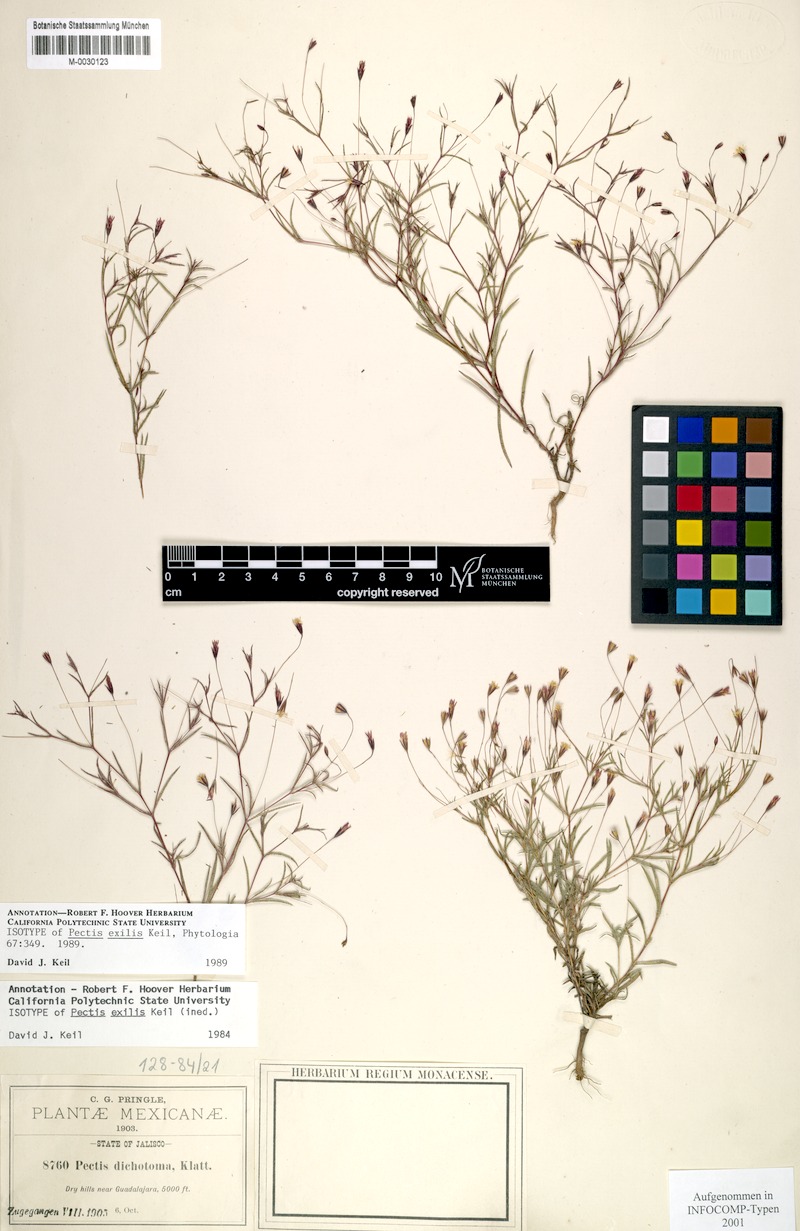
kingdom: Plantae
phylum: Tracheophyta
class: Magnoliopsida
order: Asterales
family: Asteraceae
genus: Pectis
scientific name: Pectis exilis
